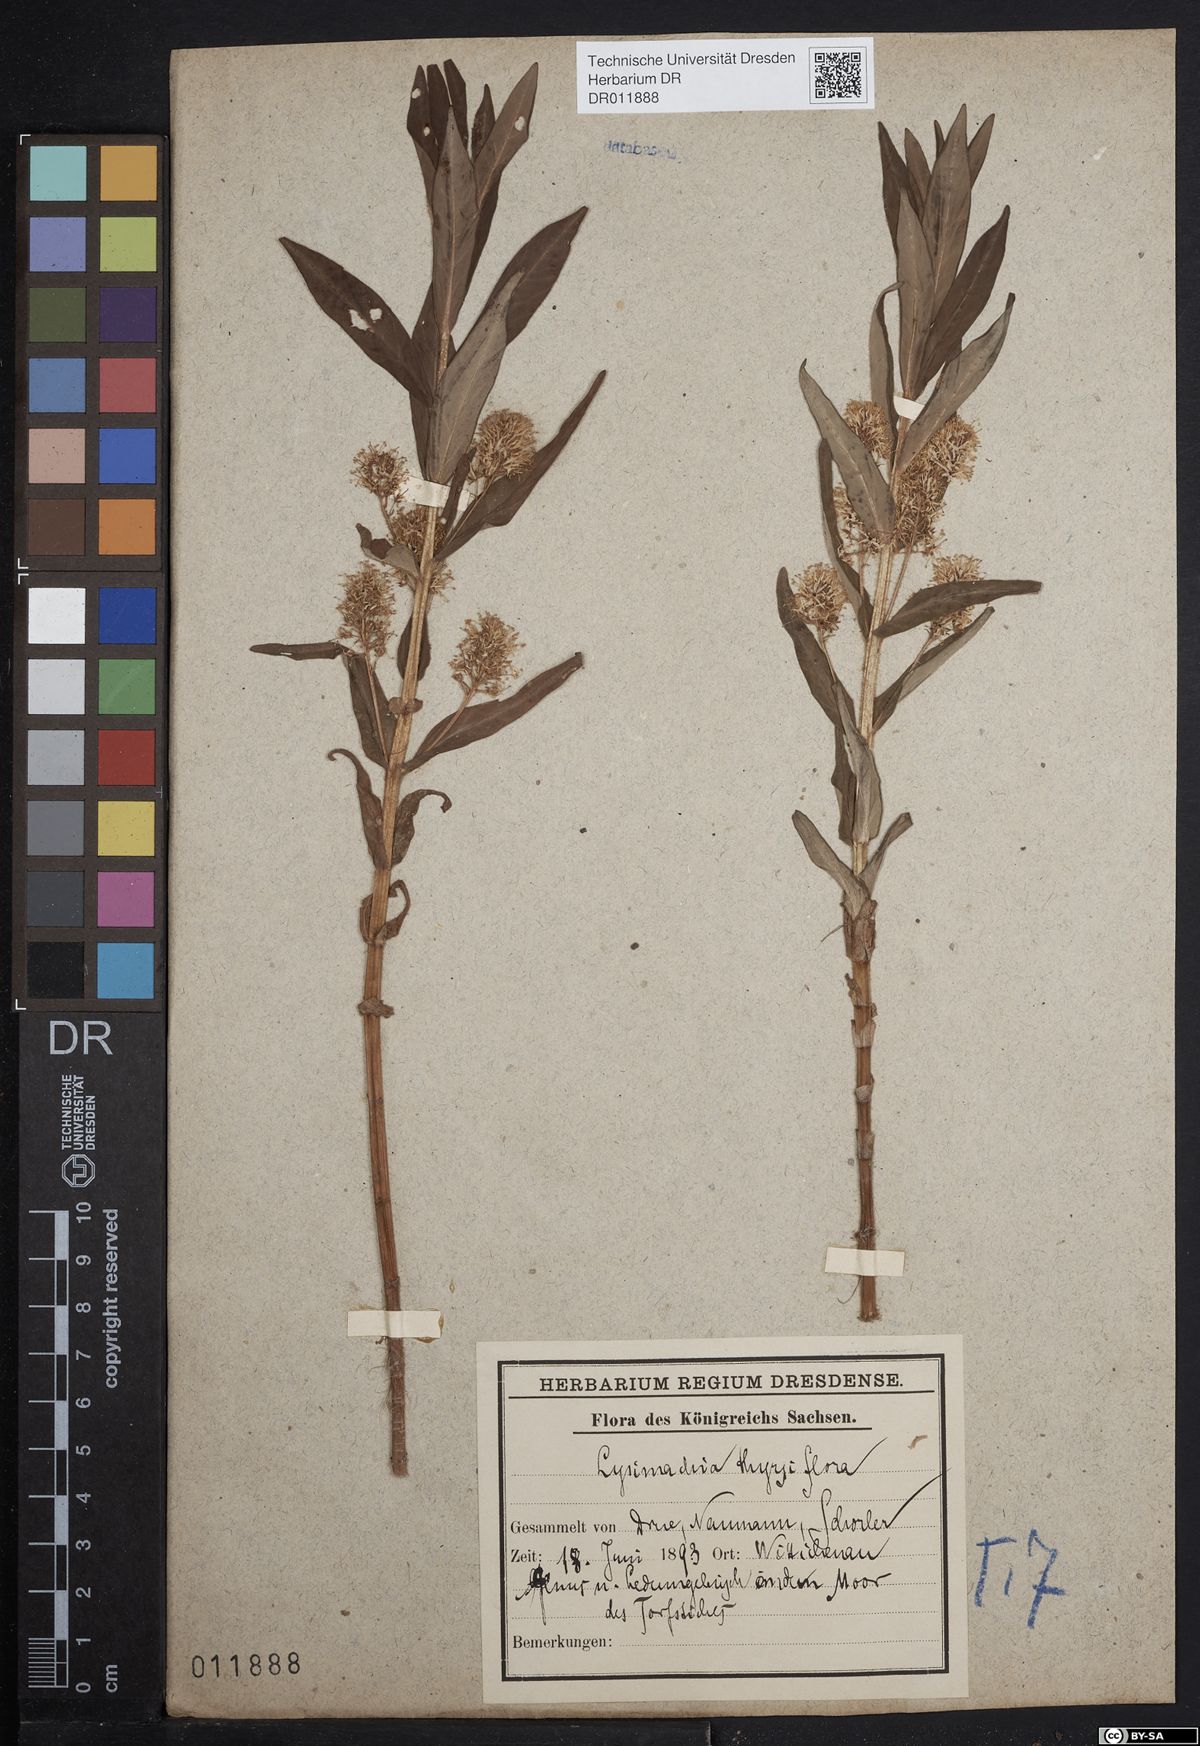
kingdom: Plantae
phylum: Tracheophyta
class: Magnoliopsida
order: Ericales
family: Primulaceae
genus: Lysimachia
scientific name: Lysimachia thyrsiflora
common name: Tufted loosestrife
